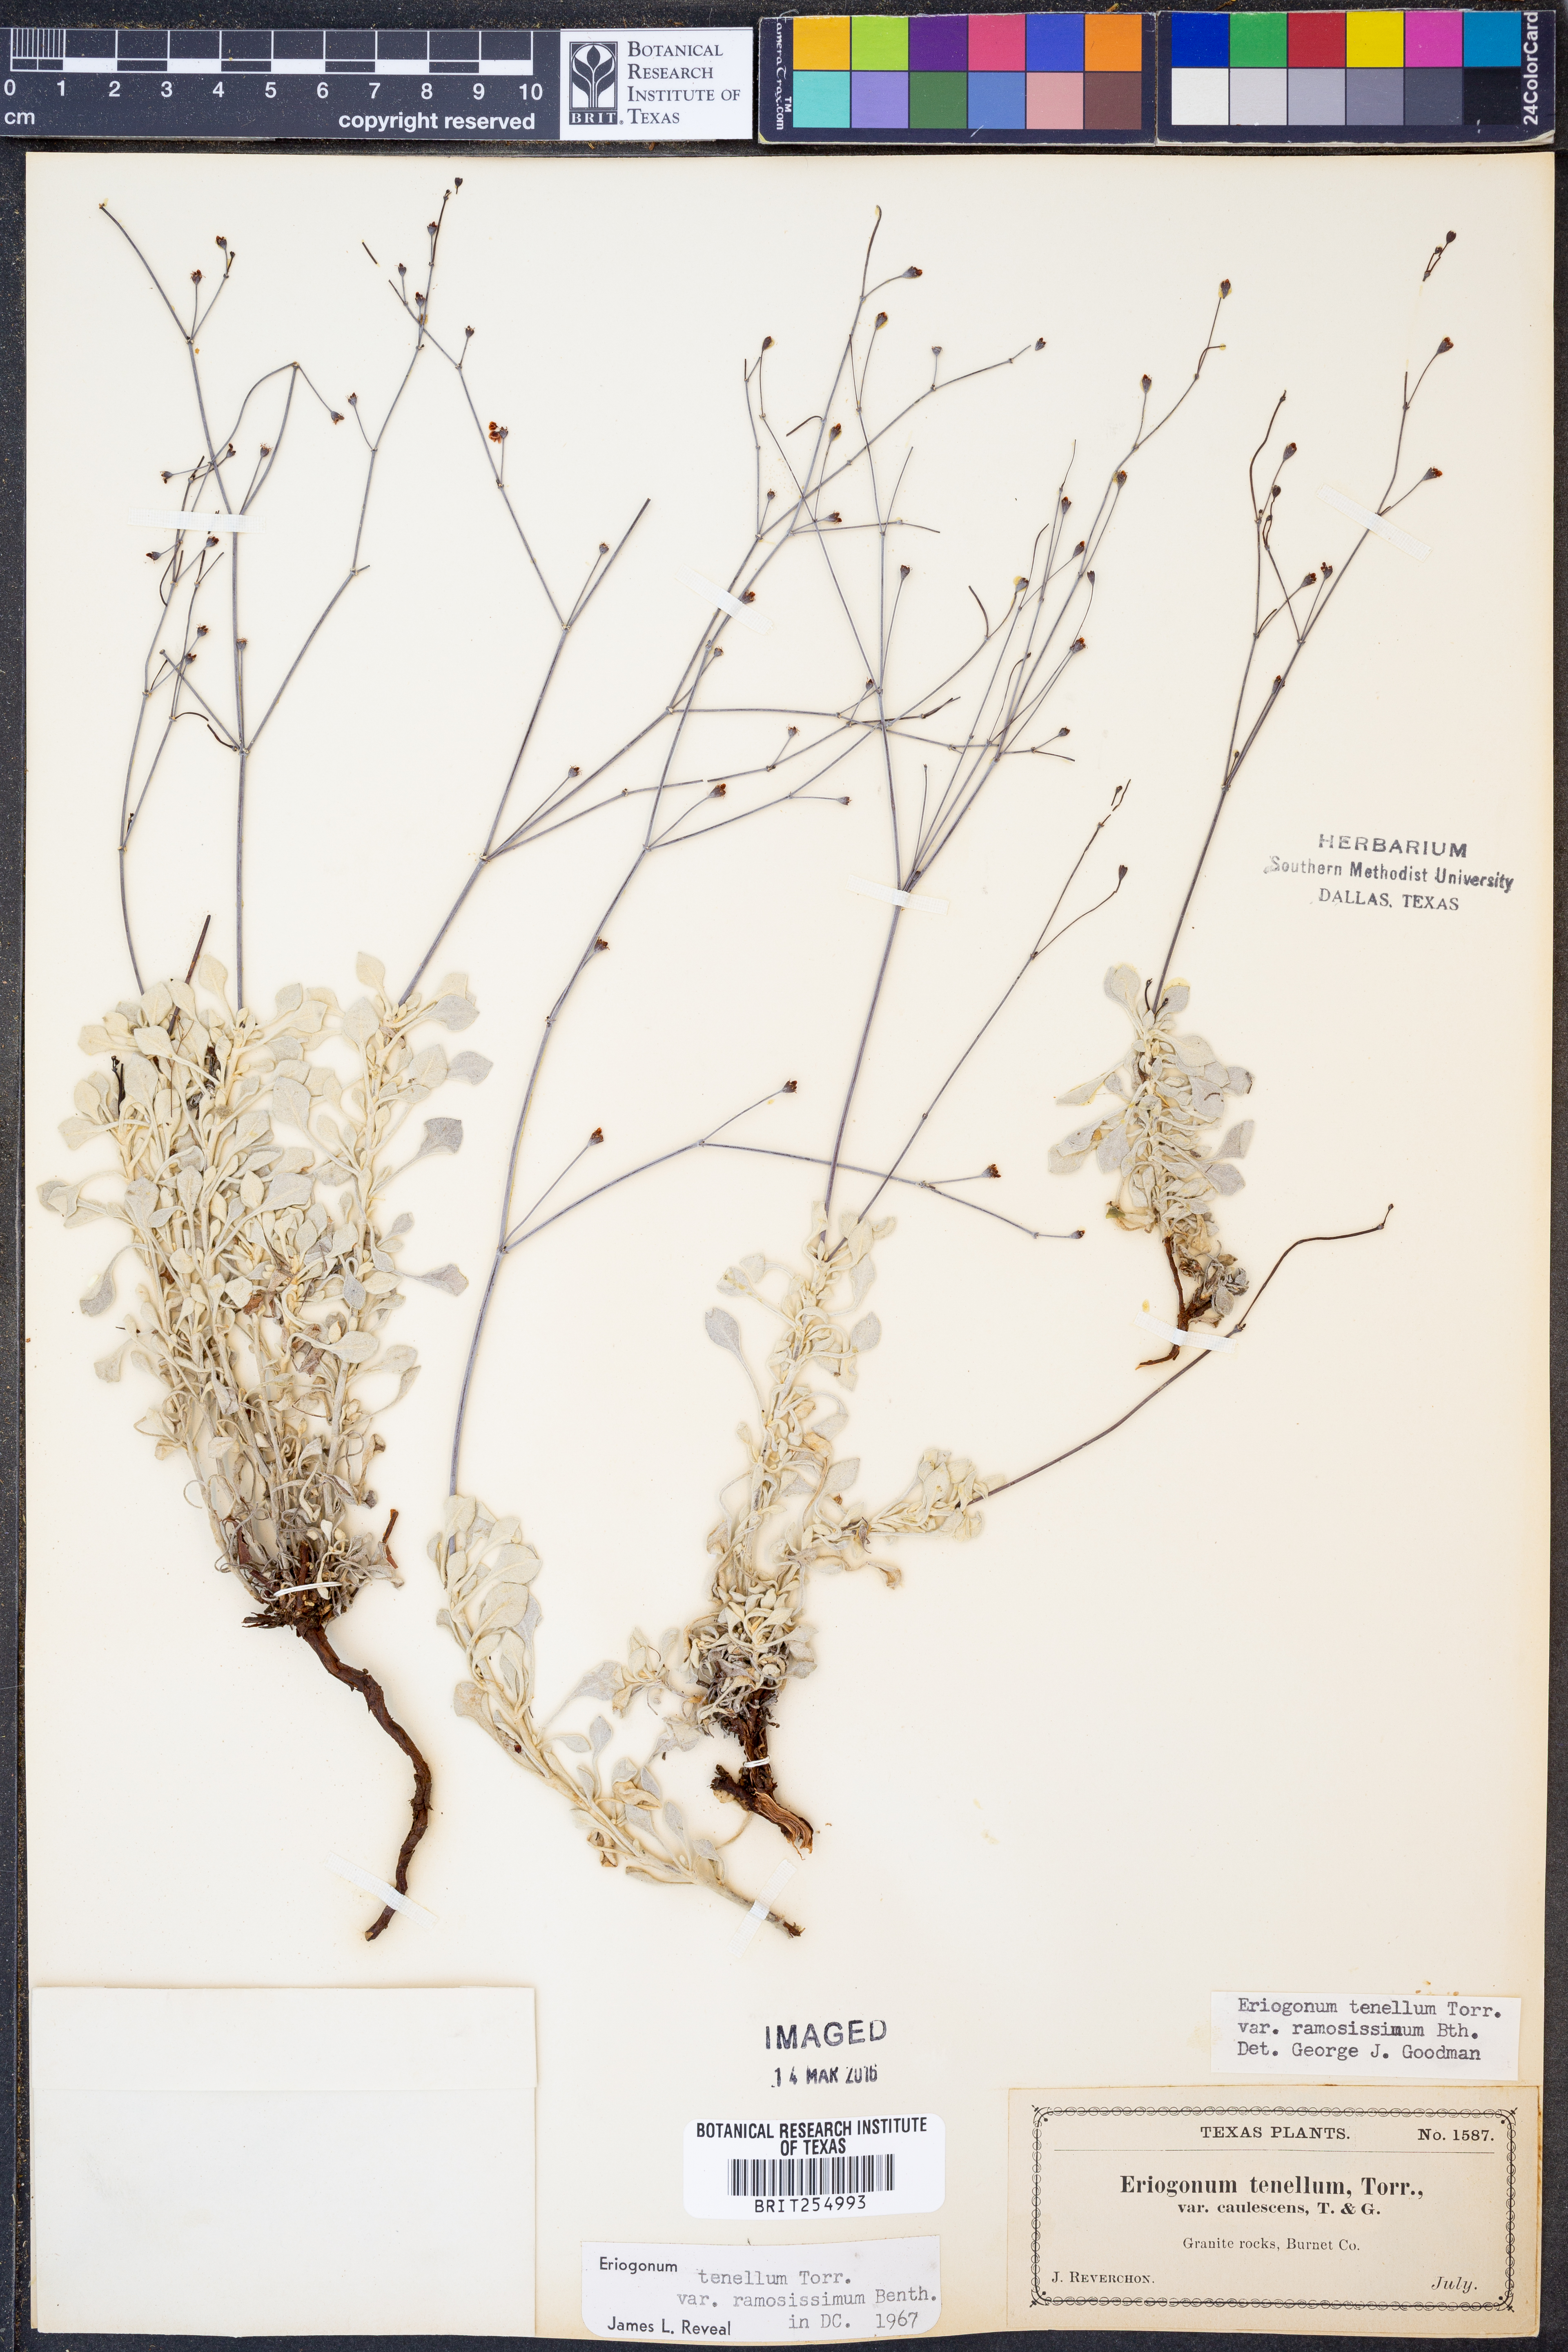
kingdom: Plantae
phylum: Tracheophyta
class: Magnoliopsida
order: Caryophyllales
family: Polygonaceae
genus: Eriogonum
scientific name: Eriogonum graniticum
